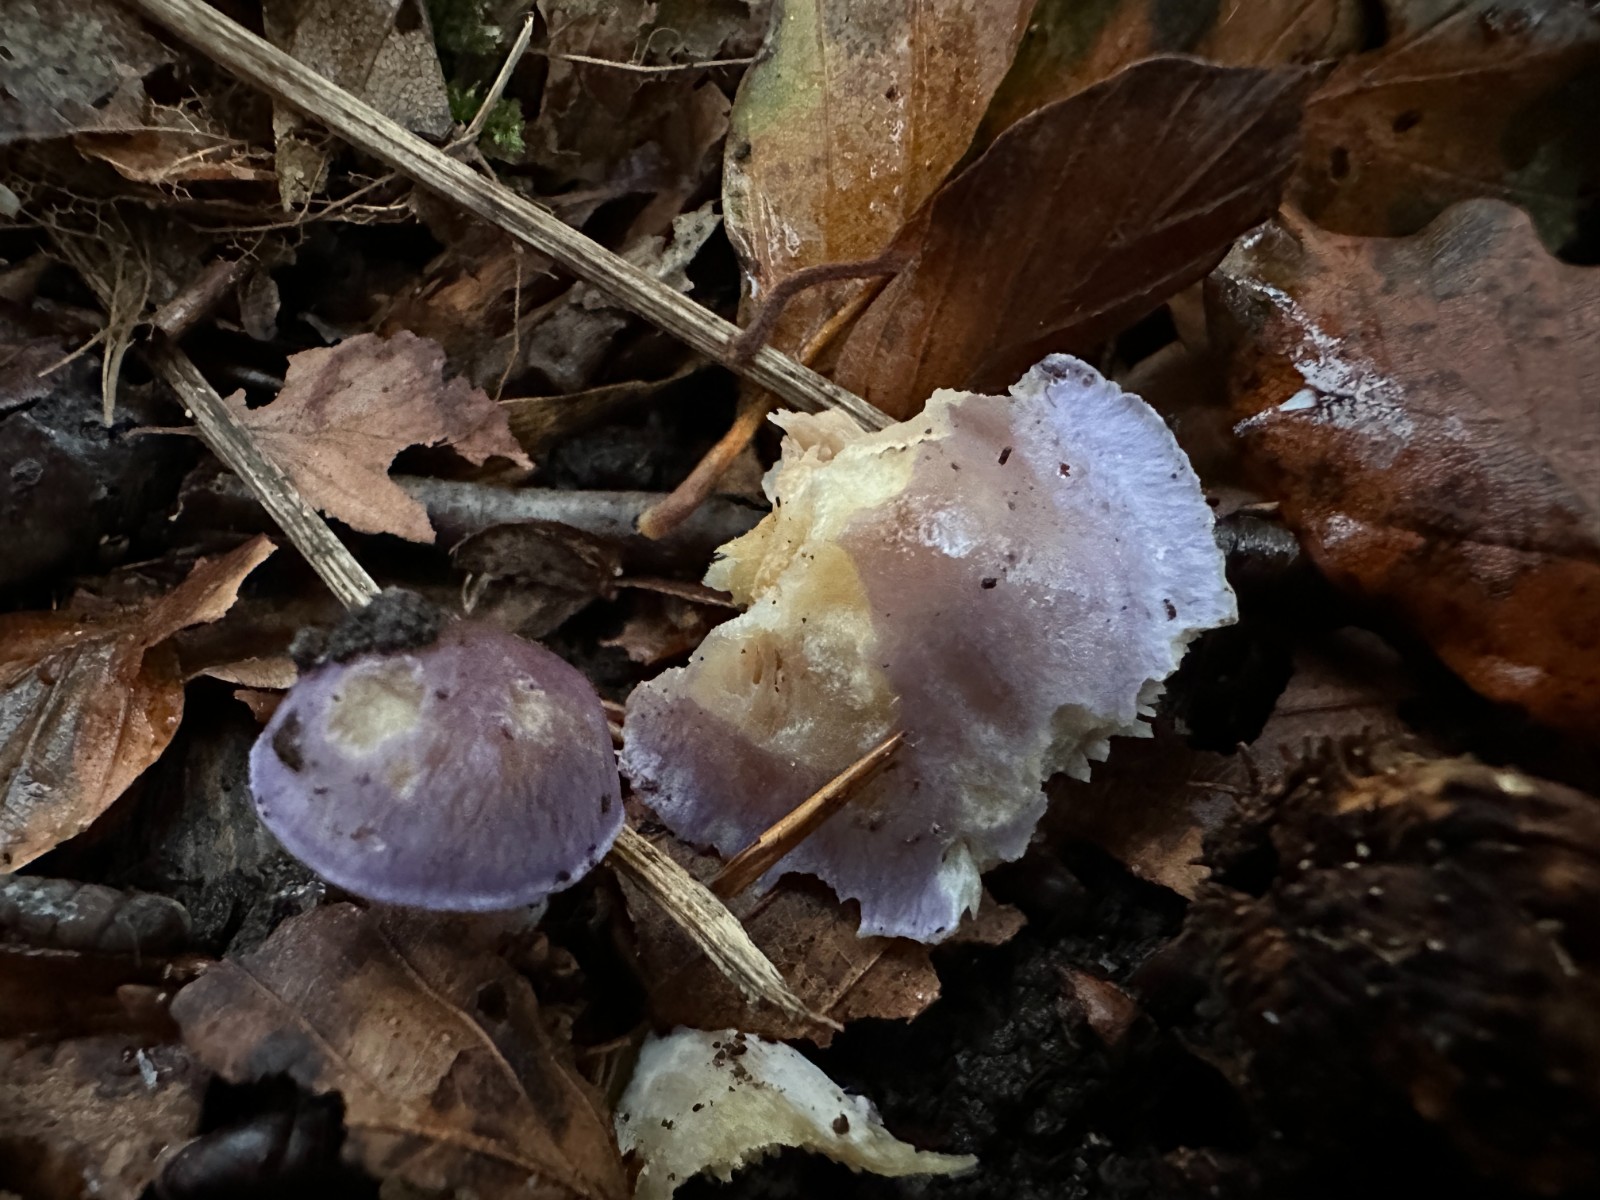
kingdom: Fungi
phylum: Basidiomycota
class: Agaricomycetes
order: Agaricales
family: Cortinariaceae
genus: Thaxterogaster
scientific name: Thaxterogaster croceocoeruleus
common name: blågullig slørhat
